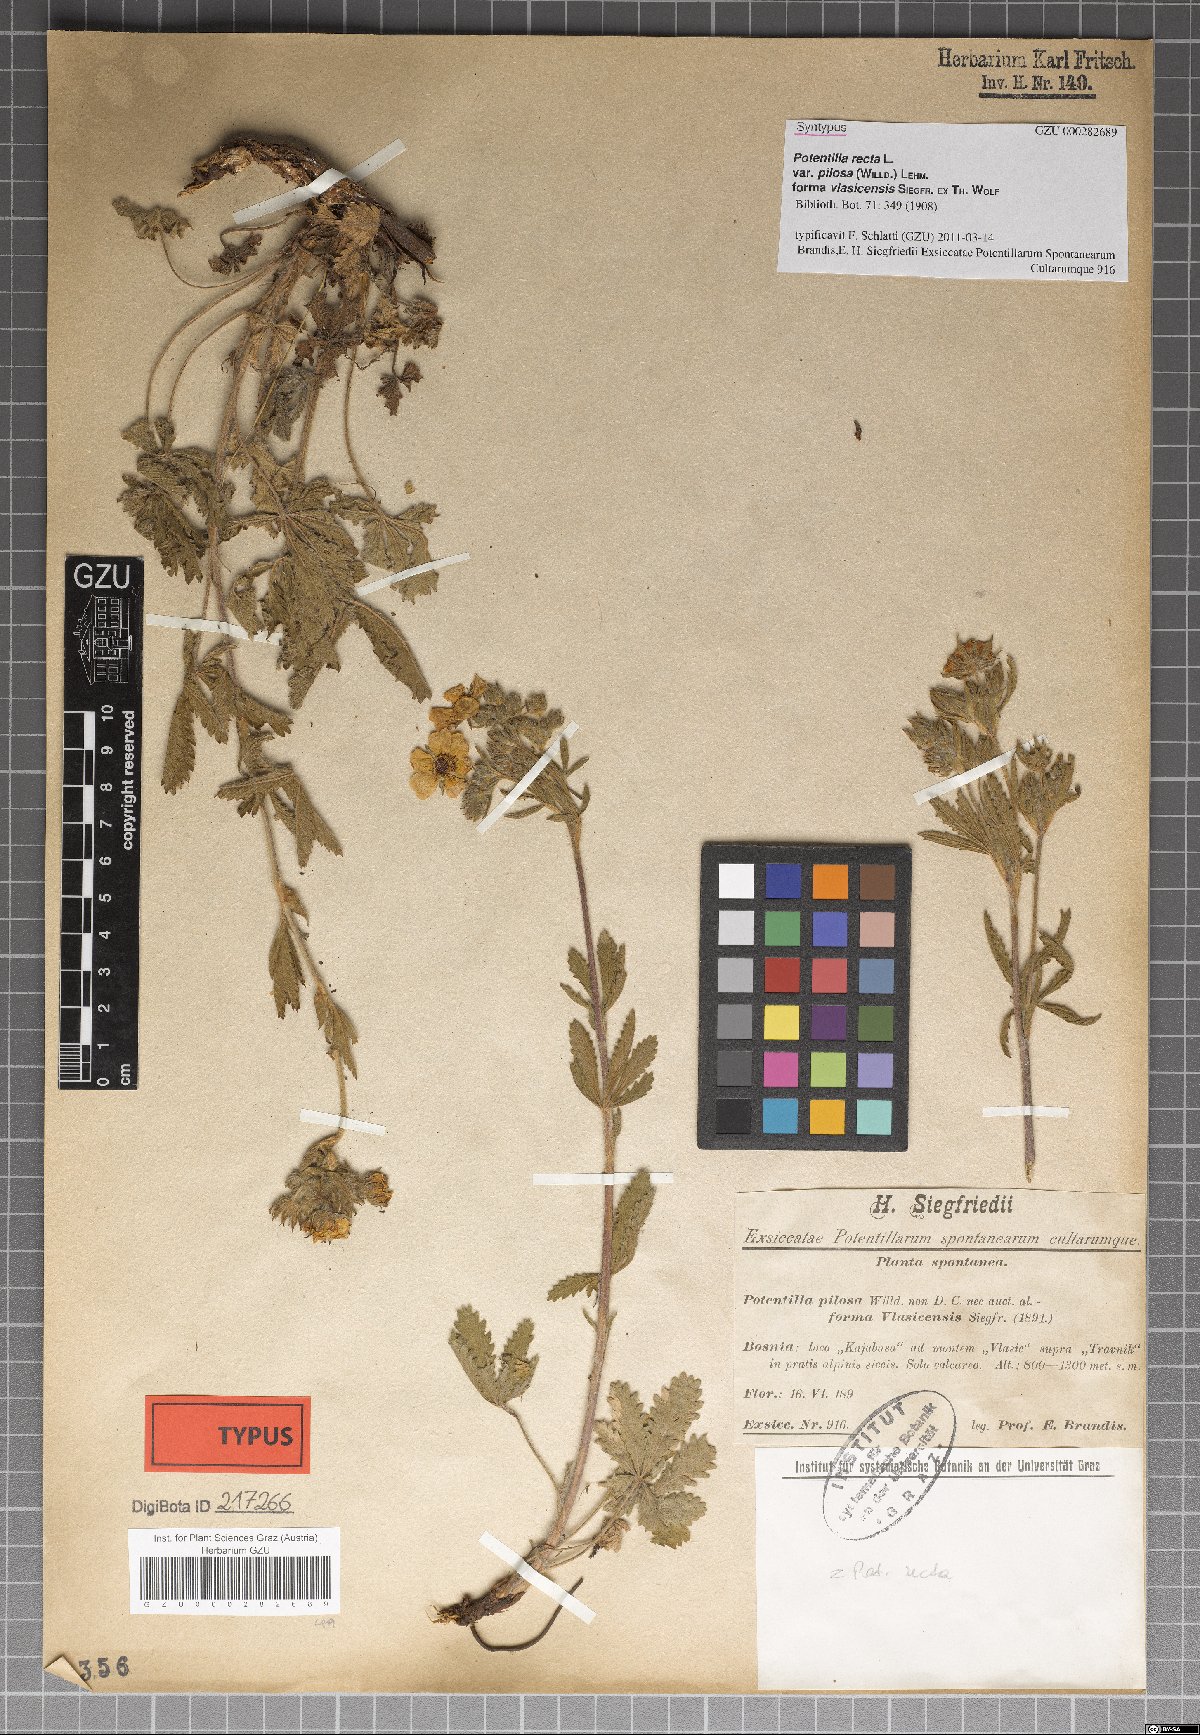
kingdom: Plantae
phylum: Tracheophyta
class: Magnoliopsida
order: Rosales
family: Rosaceae
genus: Potentilla
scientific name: Potentilla recta
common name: Sulphur cinquefoil
